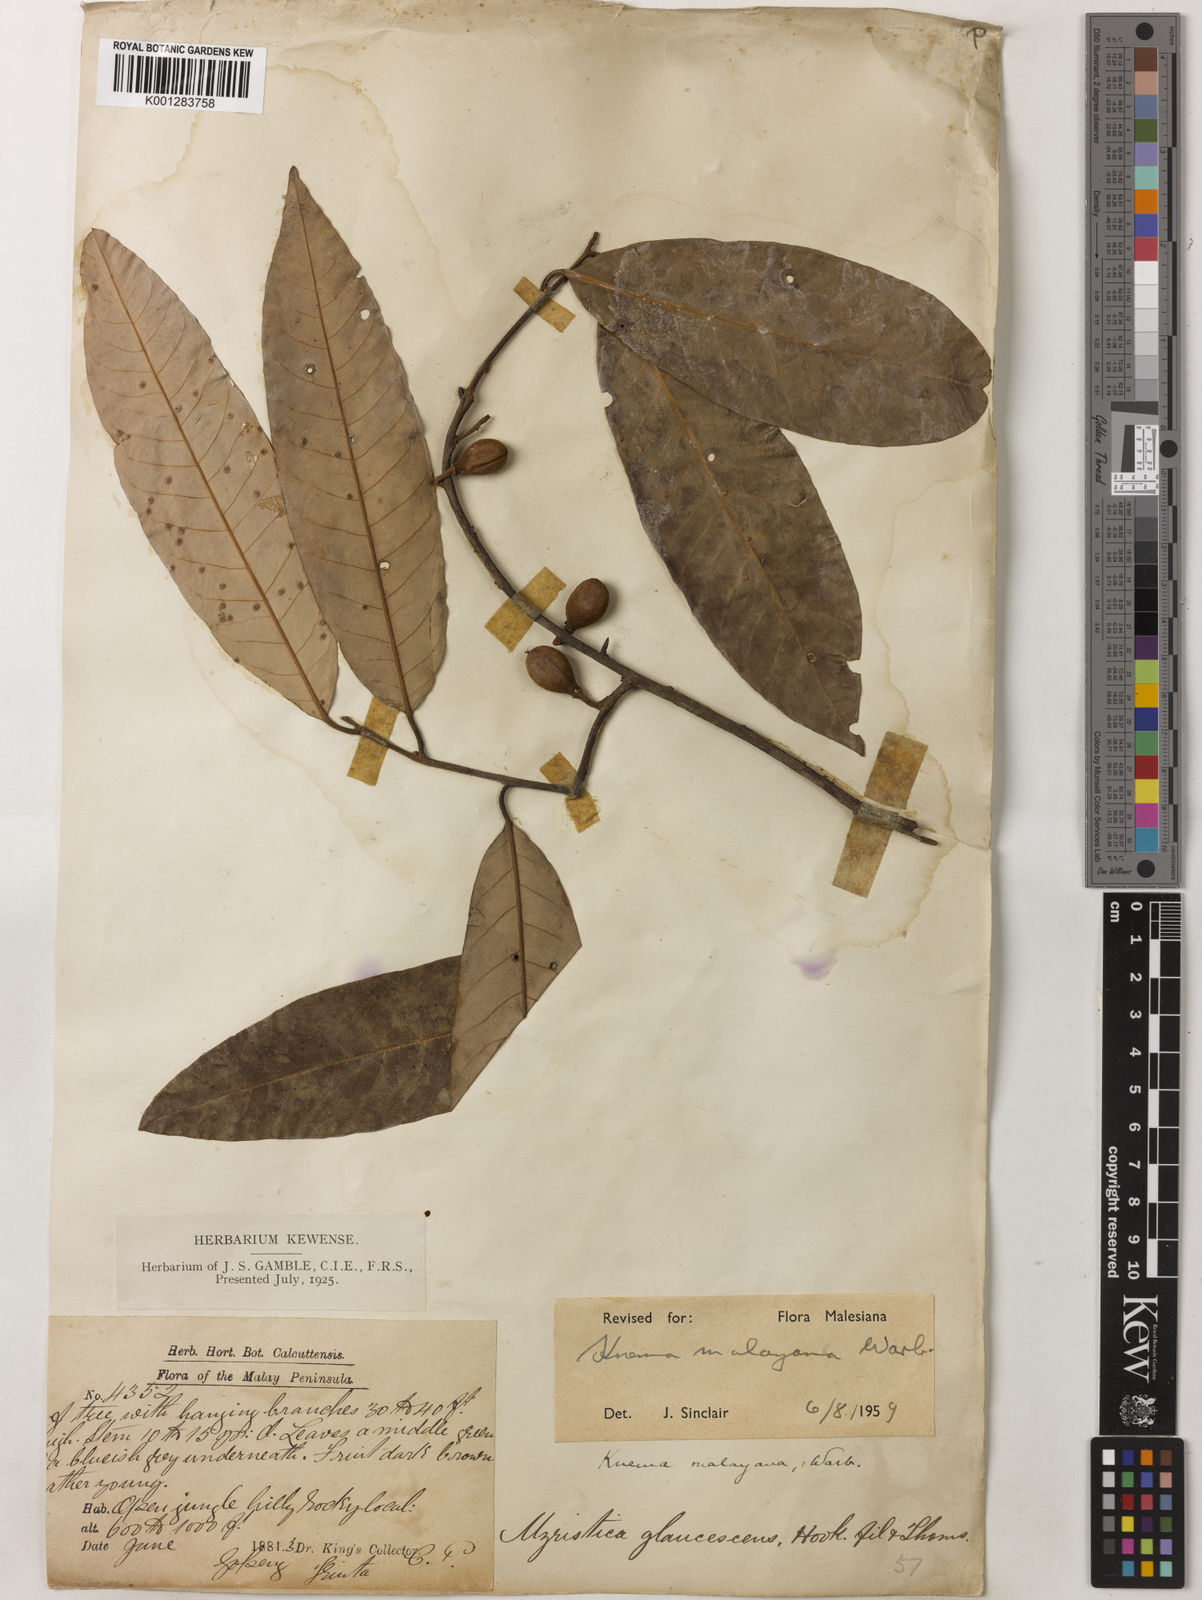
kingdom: Plantae
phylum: Tracheophyta
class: Magnoliopsida
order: Magnoliales
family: Myristicaceae
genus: Knema
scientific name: Knema malayana
